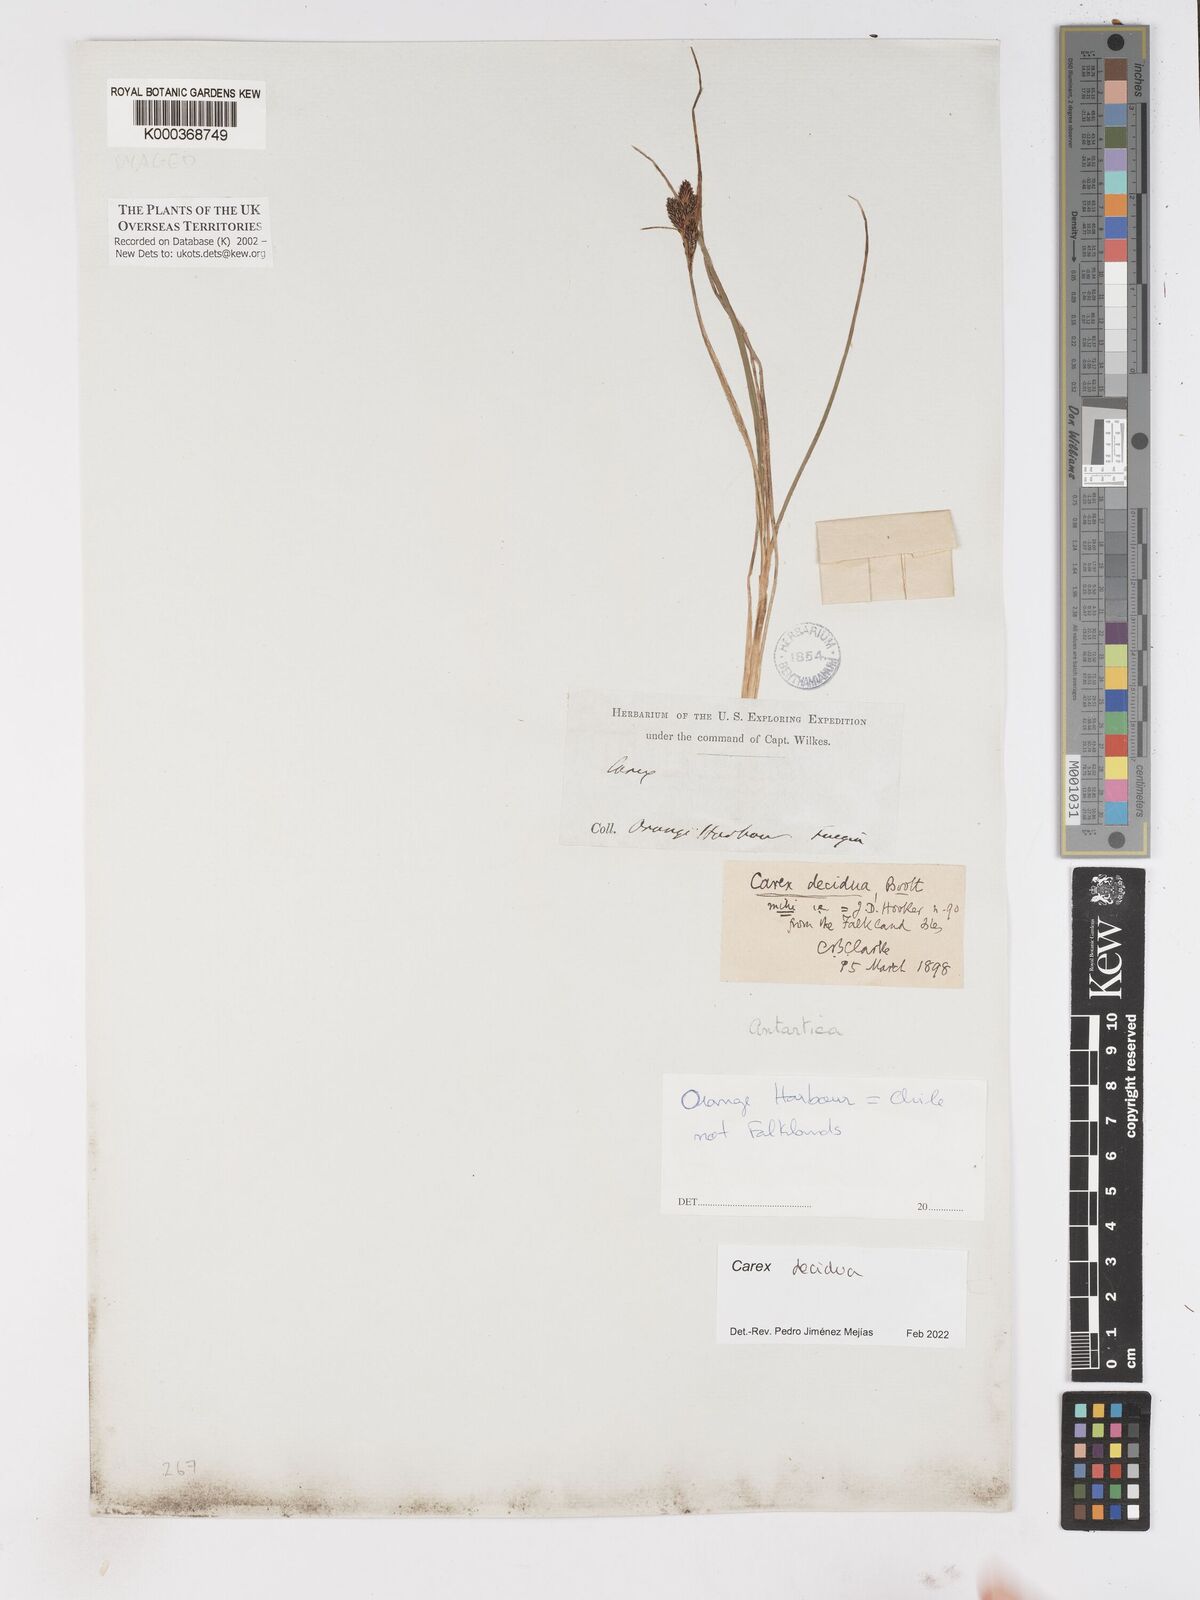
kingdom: Plantae
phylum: Tracheophyta
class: Liliopsida
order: Poales
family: Cyperaceae
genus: Carex
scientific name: Carex decidua
